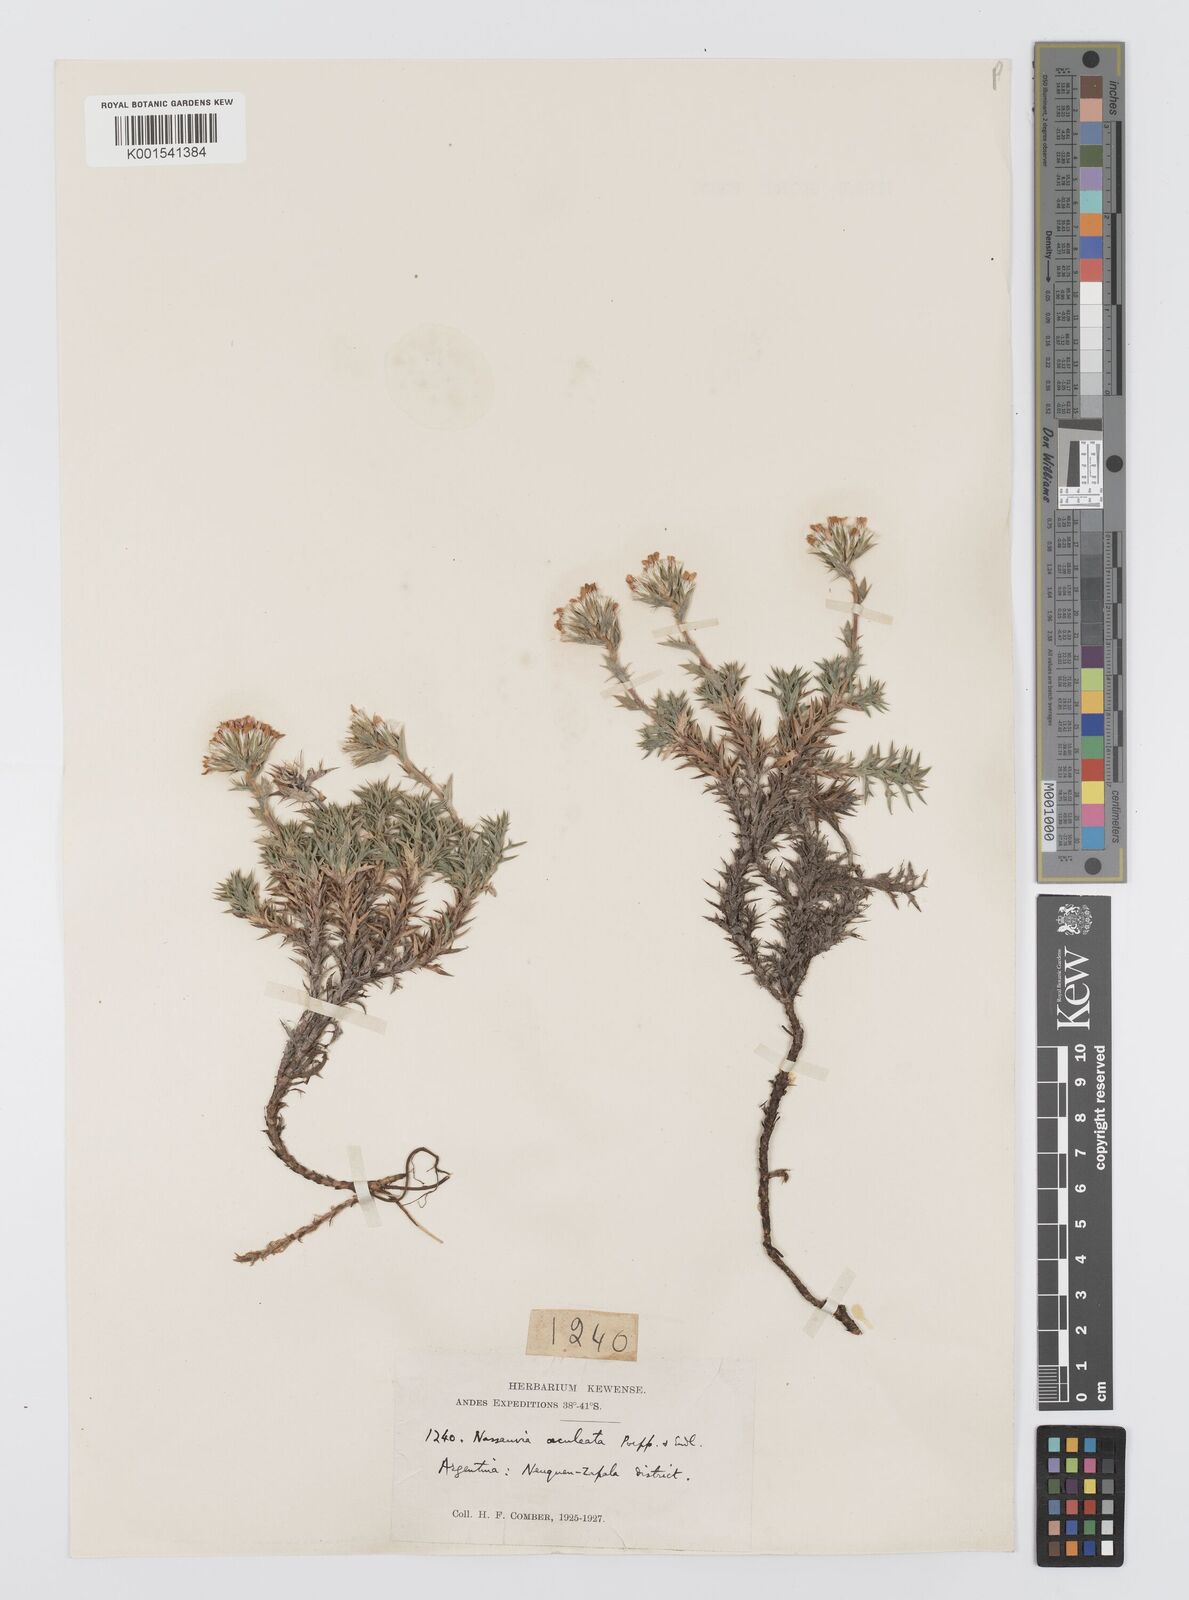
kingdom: Plantae
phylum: Tracheophyta
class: Magnoliopsida
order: Asterales
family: Asteraceae
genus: Nassauvia
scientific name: Nassauvia aculeata
